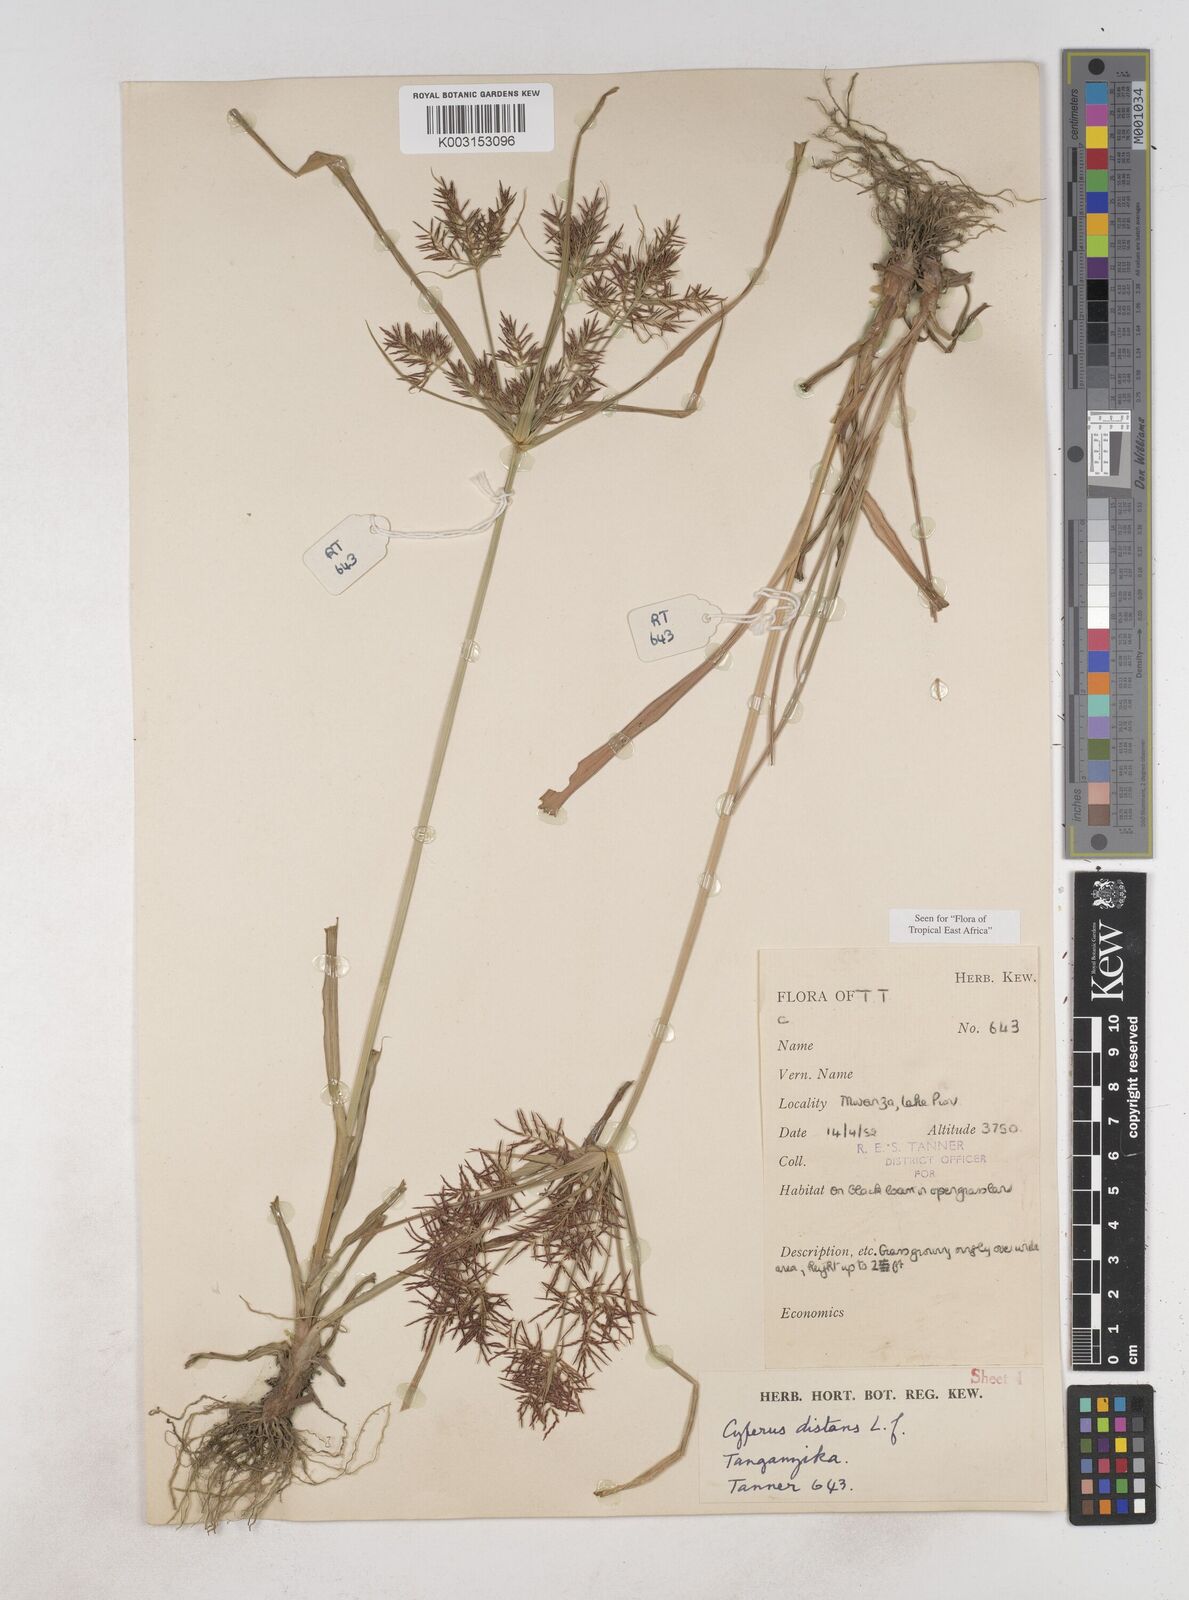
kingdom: Plantae
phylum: Tracheophyta
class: Liliopsida
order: Poales
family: Cyperaceae
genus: Cyperus
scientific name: Cyperus distans
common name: Slender cyperus
